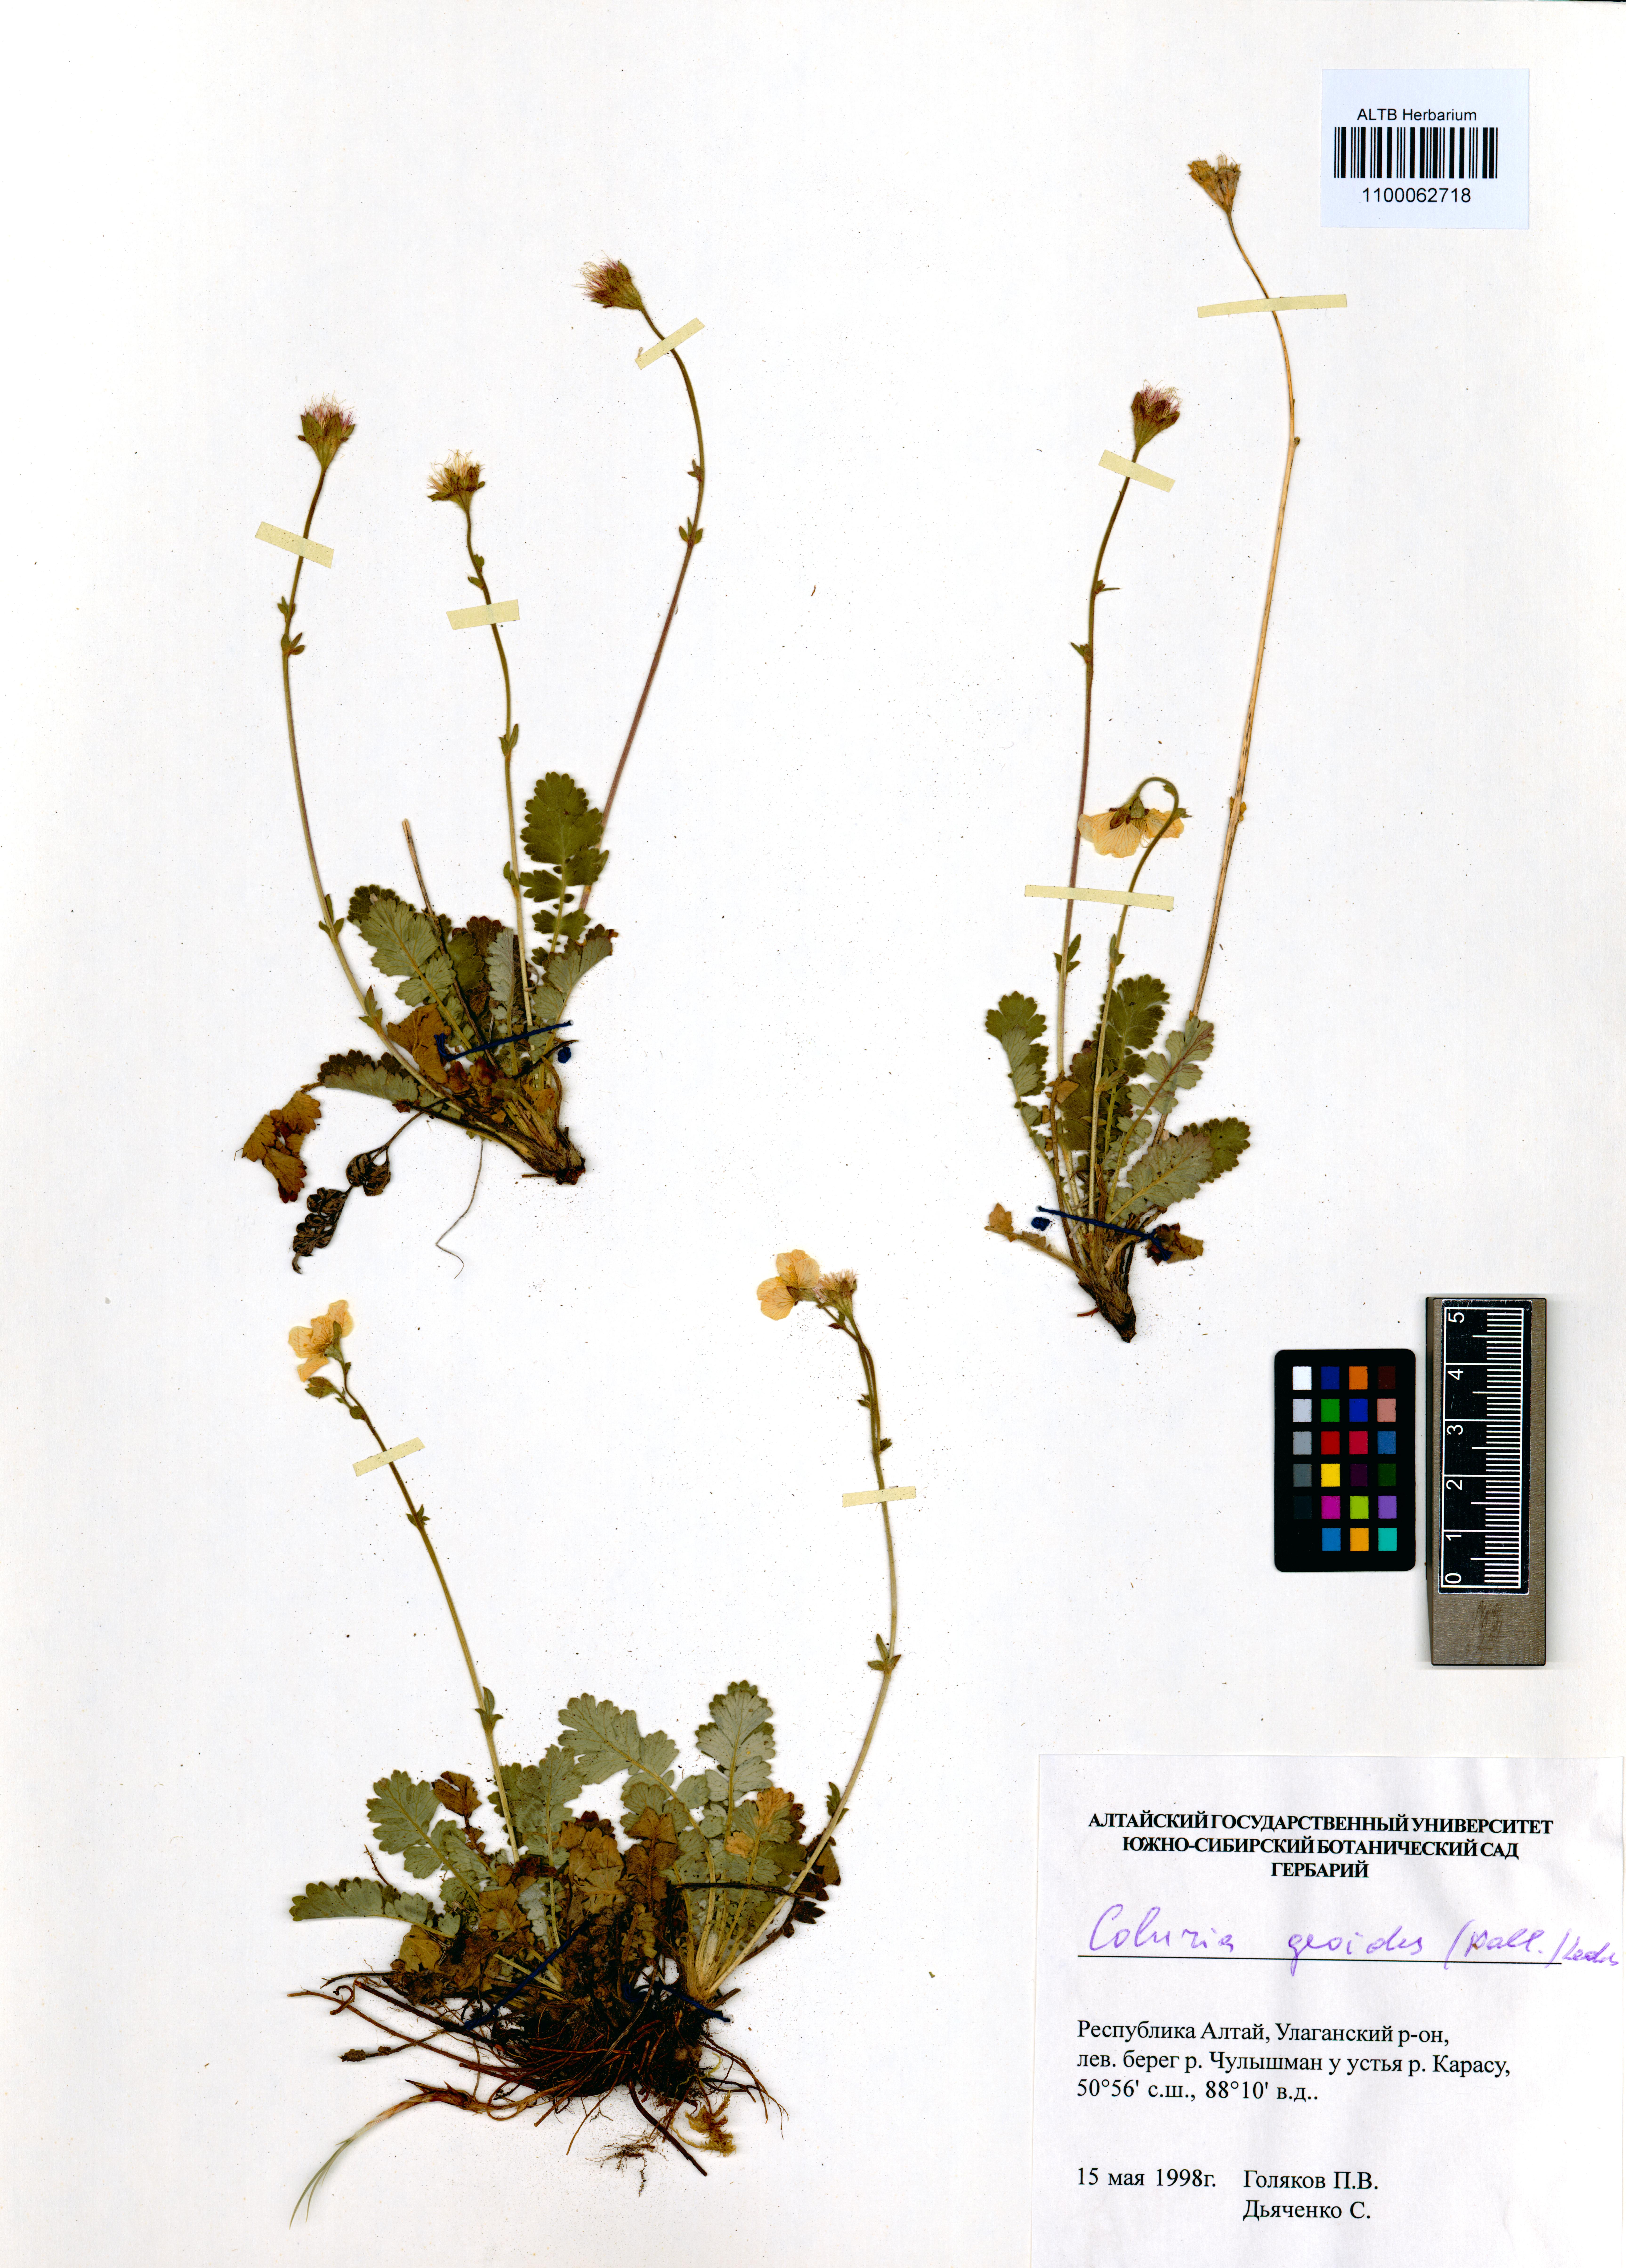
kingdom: Plantae
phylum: Tracheophyta
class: Magnoliopsida
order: Rosales
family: Rosaceae
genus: Geum
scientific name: Geum geoides
